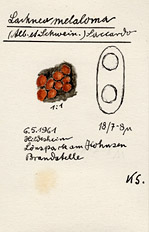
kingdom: Fungi
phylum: Ascomycota
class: Pezizomycetes
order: Pezizales
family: Pyronemataceae
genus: Anthracobia
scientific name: Anthracobia melaloma
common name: Charcoal eyelash
